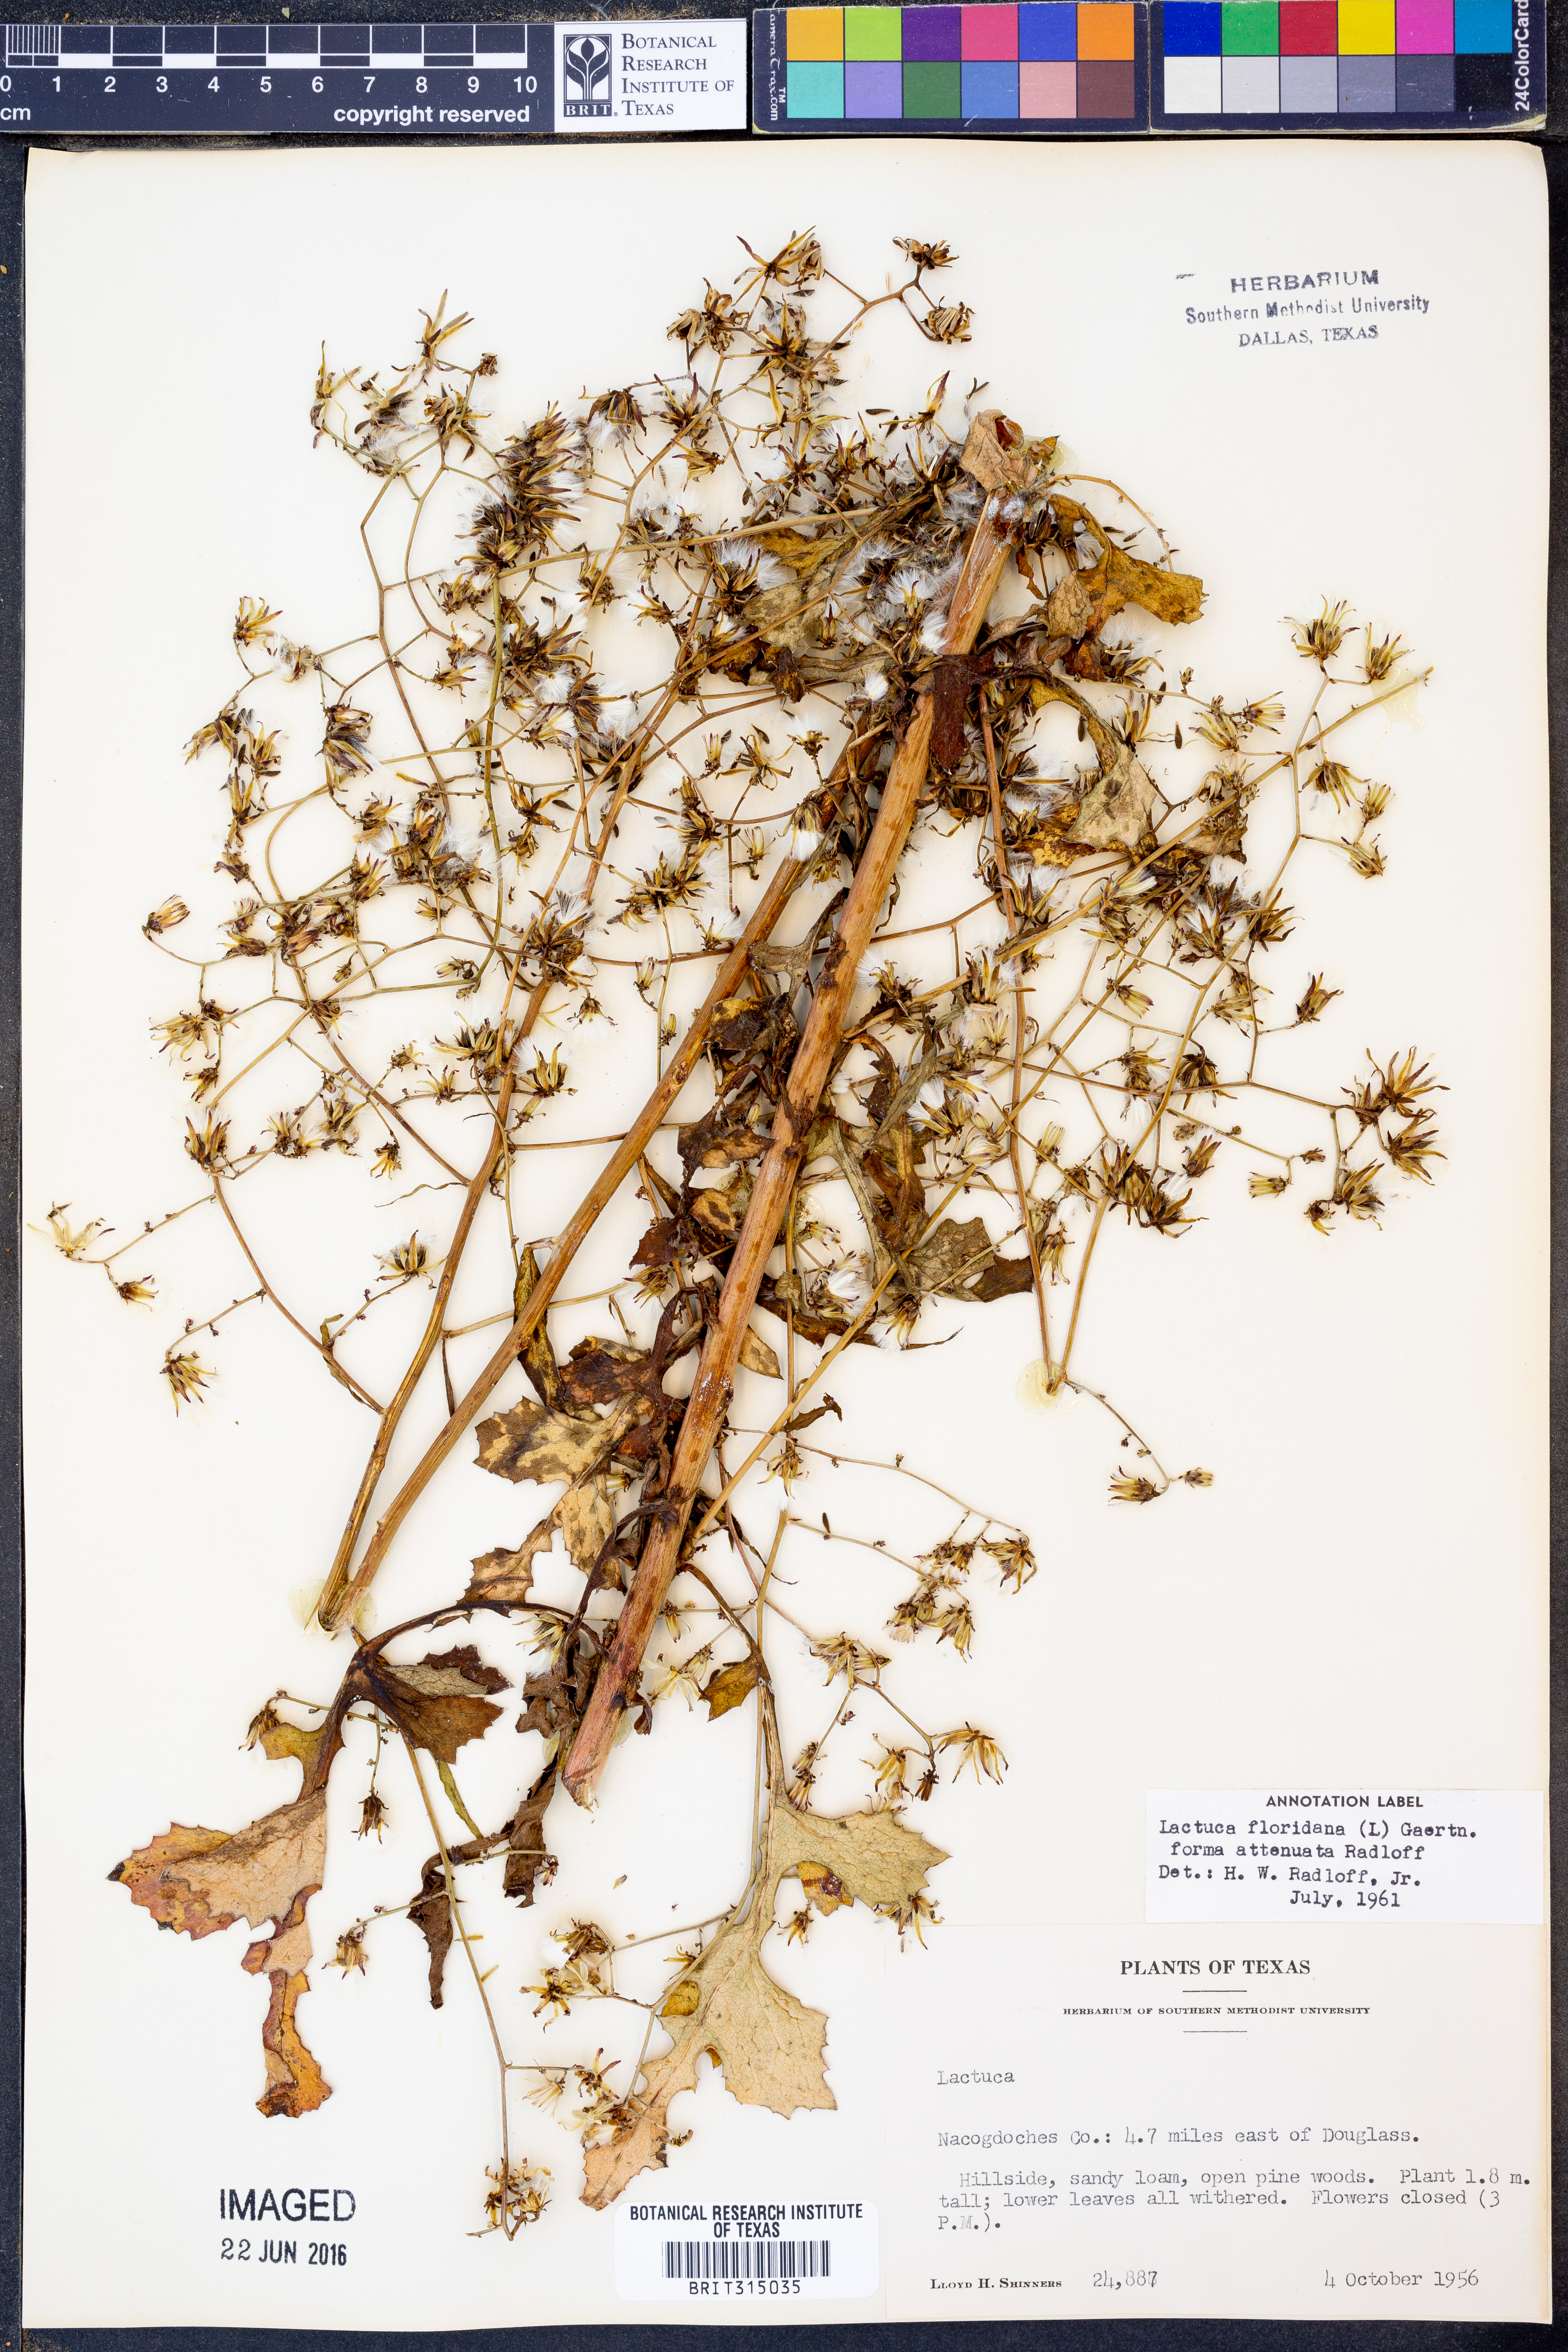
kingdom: Plantae
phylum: Tracheophyta
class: Magnoliopsida
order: Asterales
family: Asteraceae
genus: Lactuca
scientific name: Lactuca floridana
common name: Woodland lettuce
